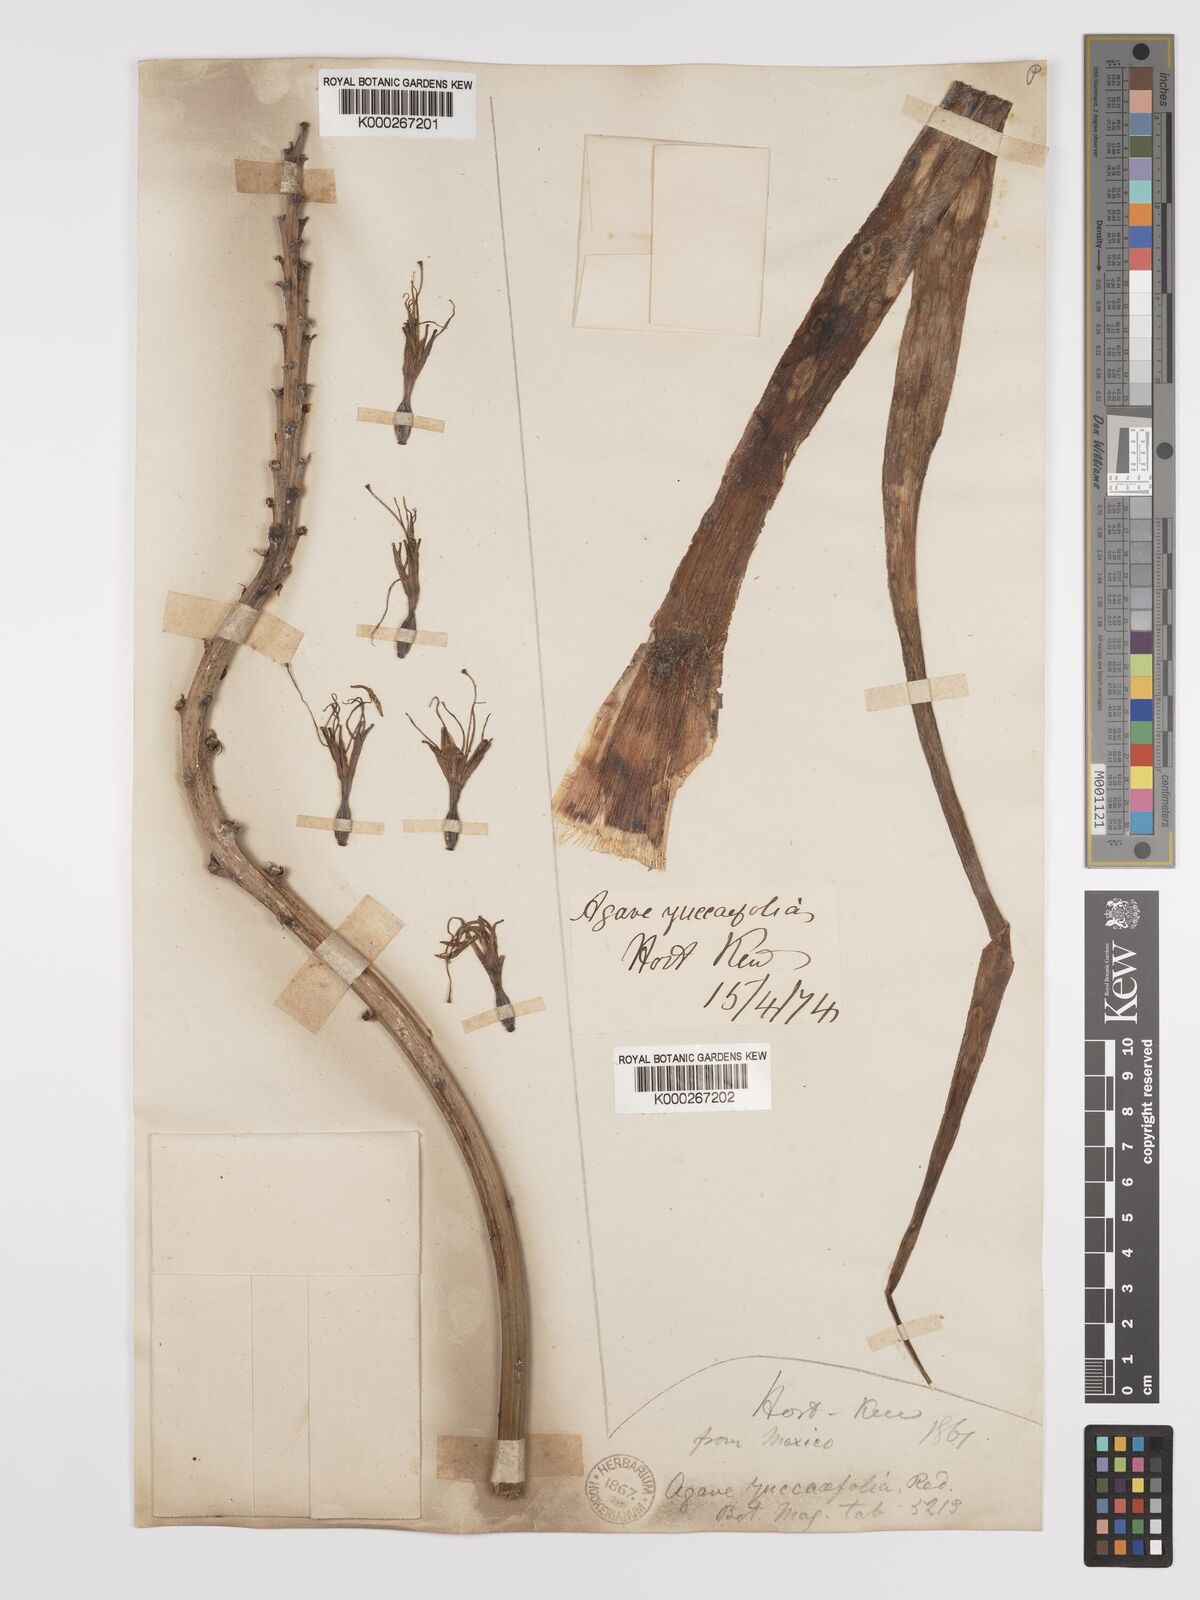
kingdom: Plantae
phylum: Tracheophyta
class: Liliopsida
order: Asparagales
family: Asparagaceae
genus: Agave
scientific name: Agave spicata
